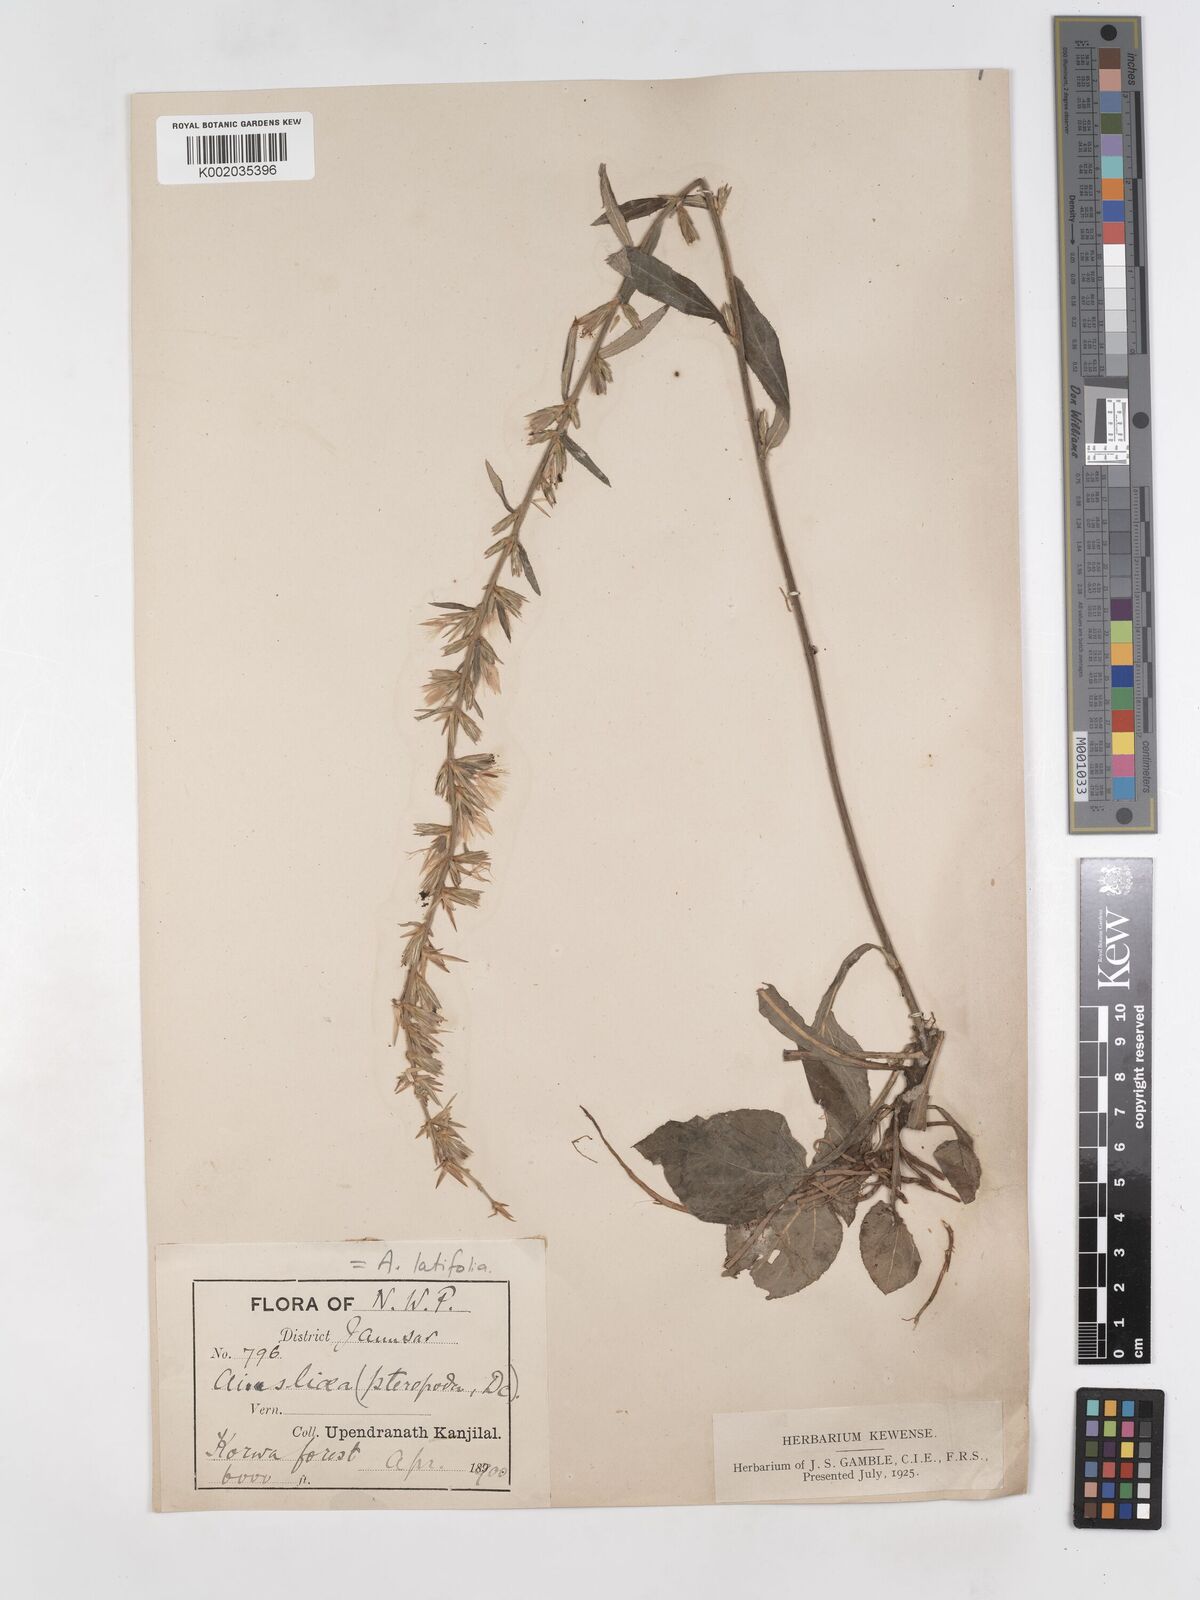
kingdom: Plantae
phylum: Tracheophyta
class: Magnoliopsida
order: Asterales
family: Asteraceae
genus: Ainsliaea
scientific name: Ainsliaea latifolia
